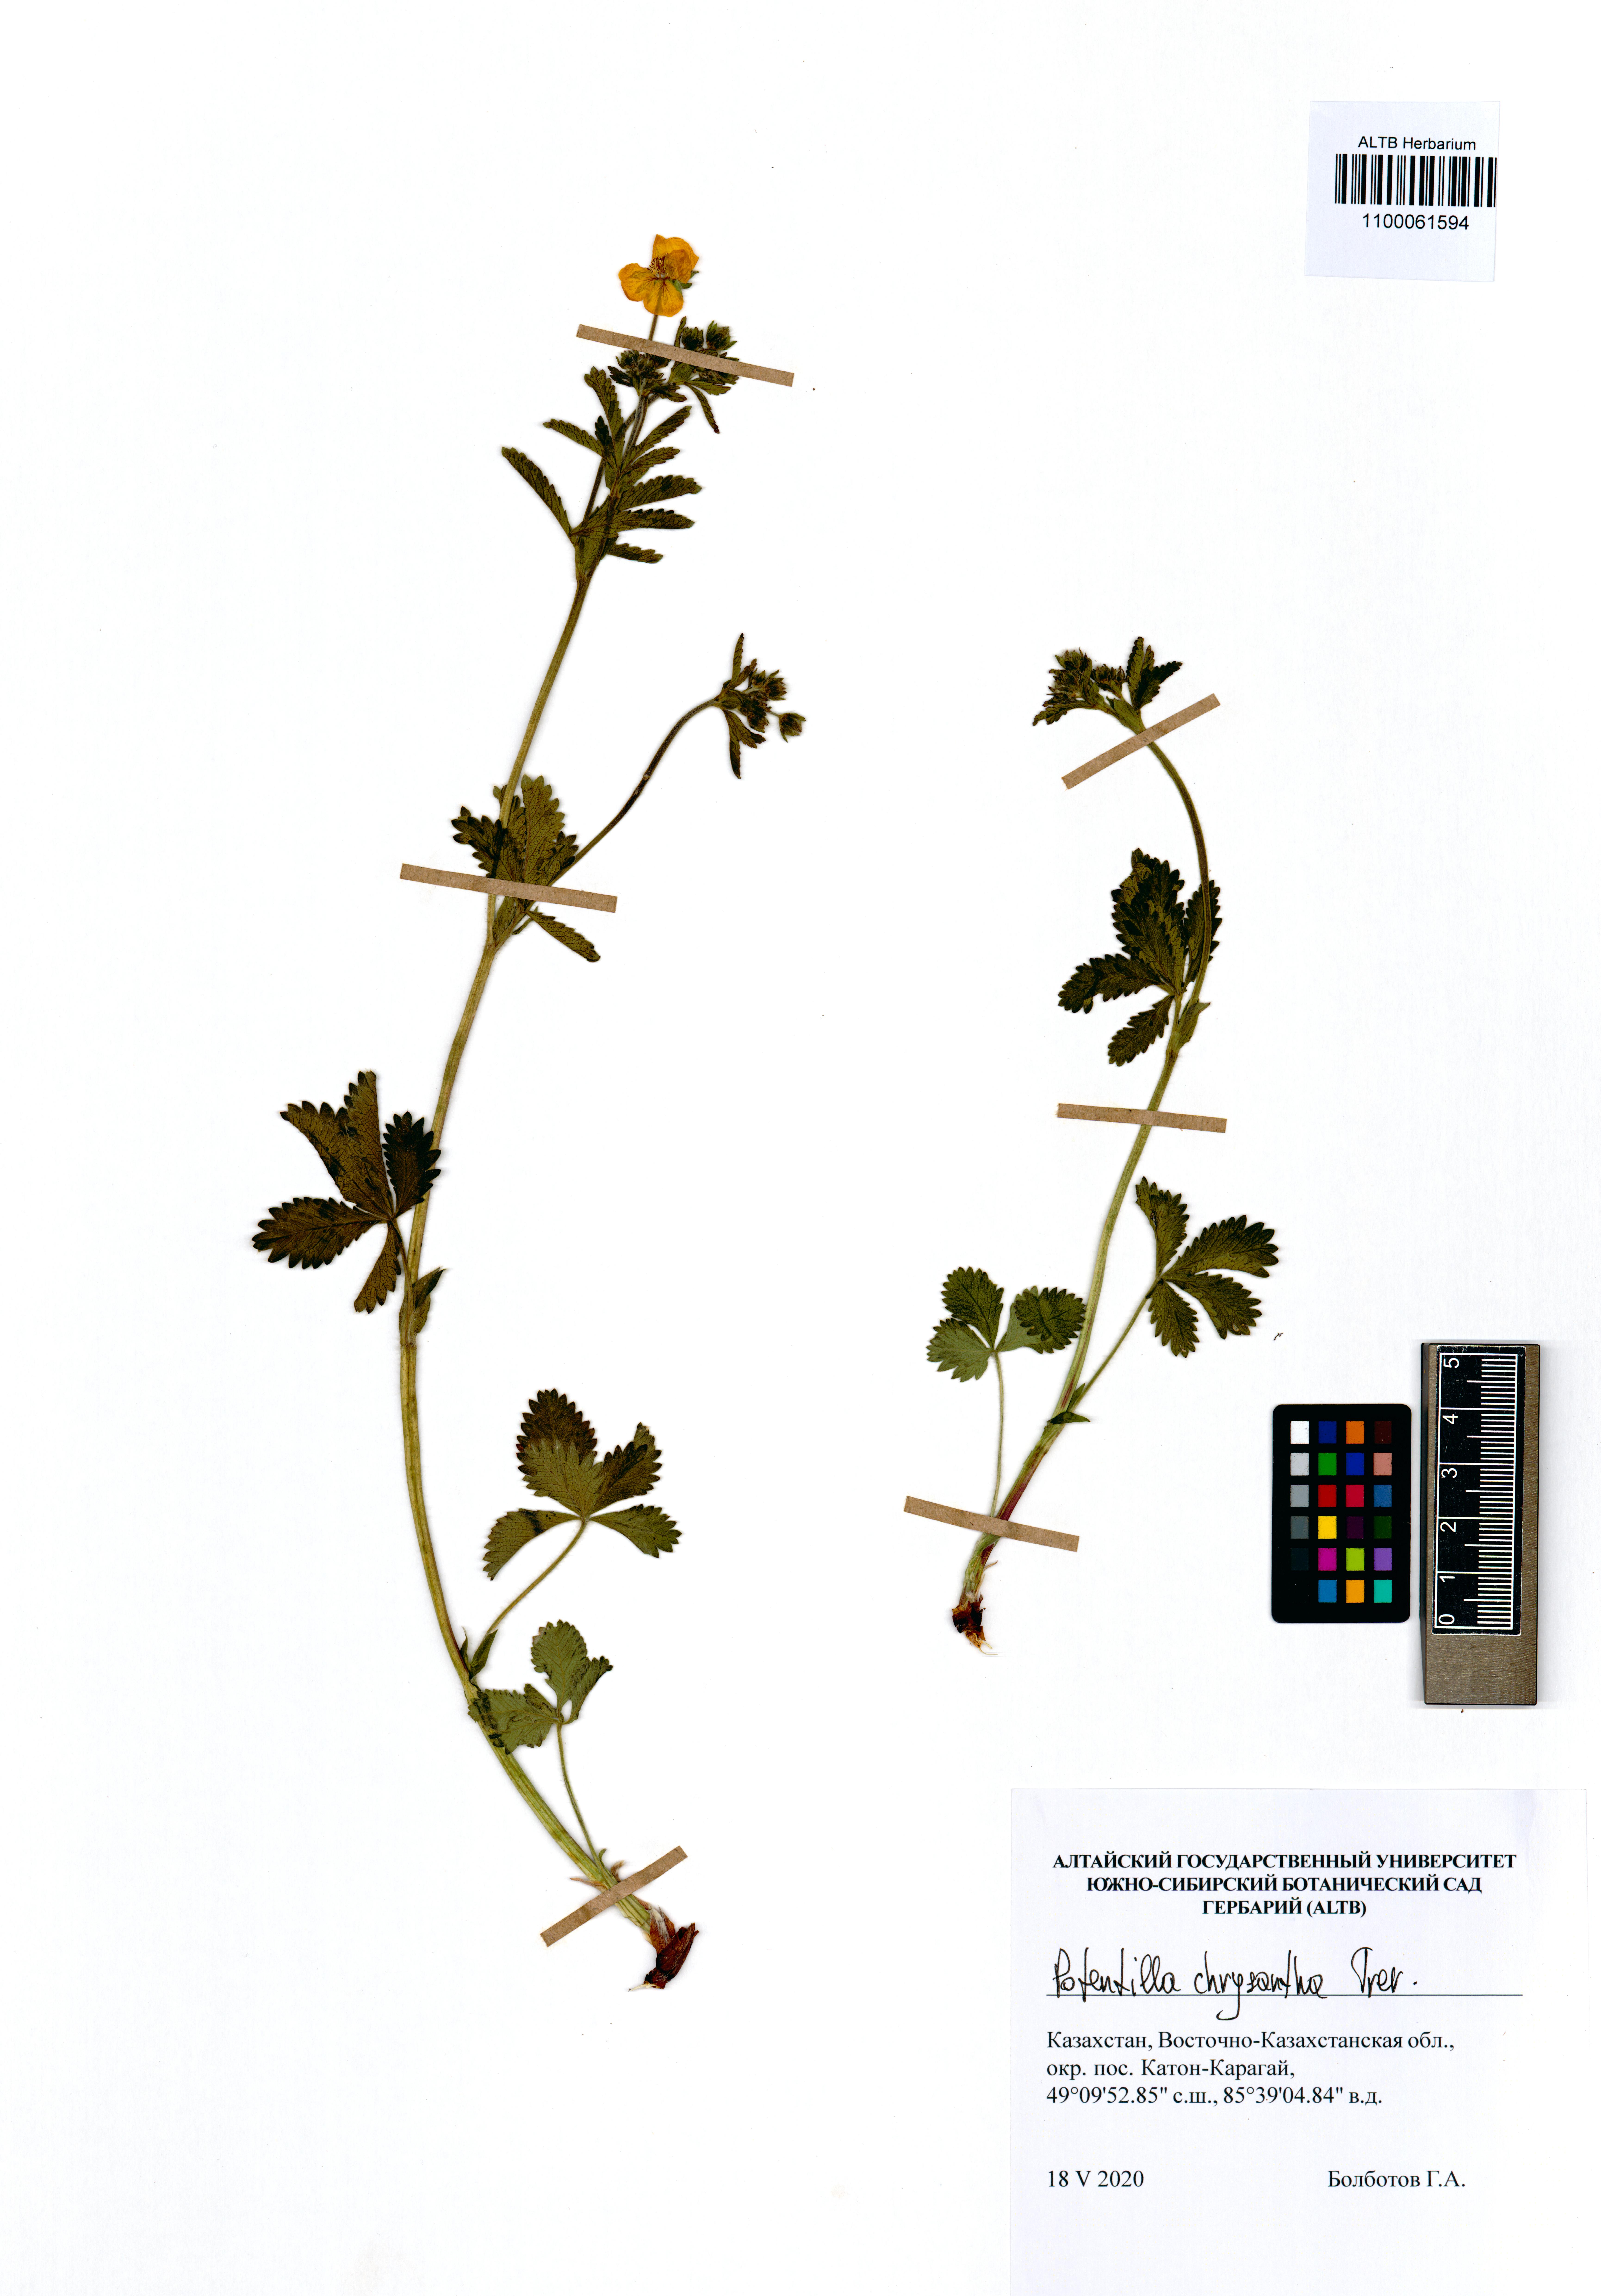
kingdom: Plantae
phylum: Tracheophyta
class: Magnoliopsida
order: Rosales
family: Rosaceae
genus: Potentilla
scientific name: Potentilla chrysantha
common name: Thuringian cinquefoil
